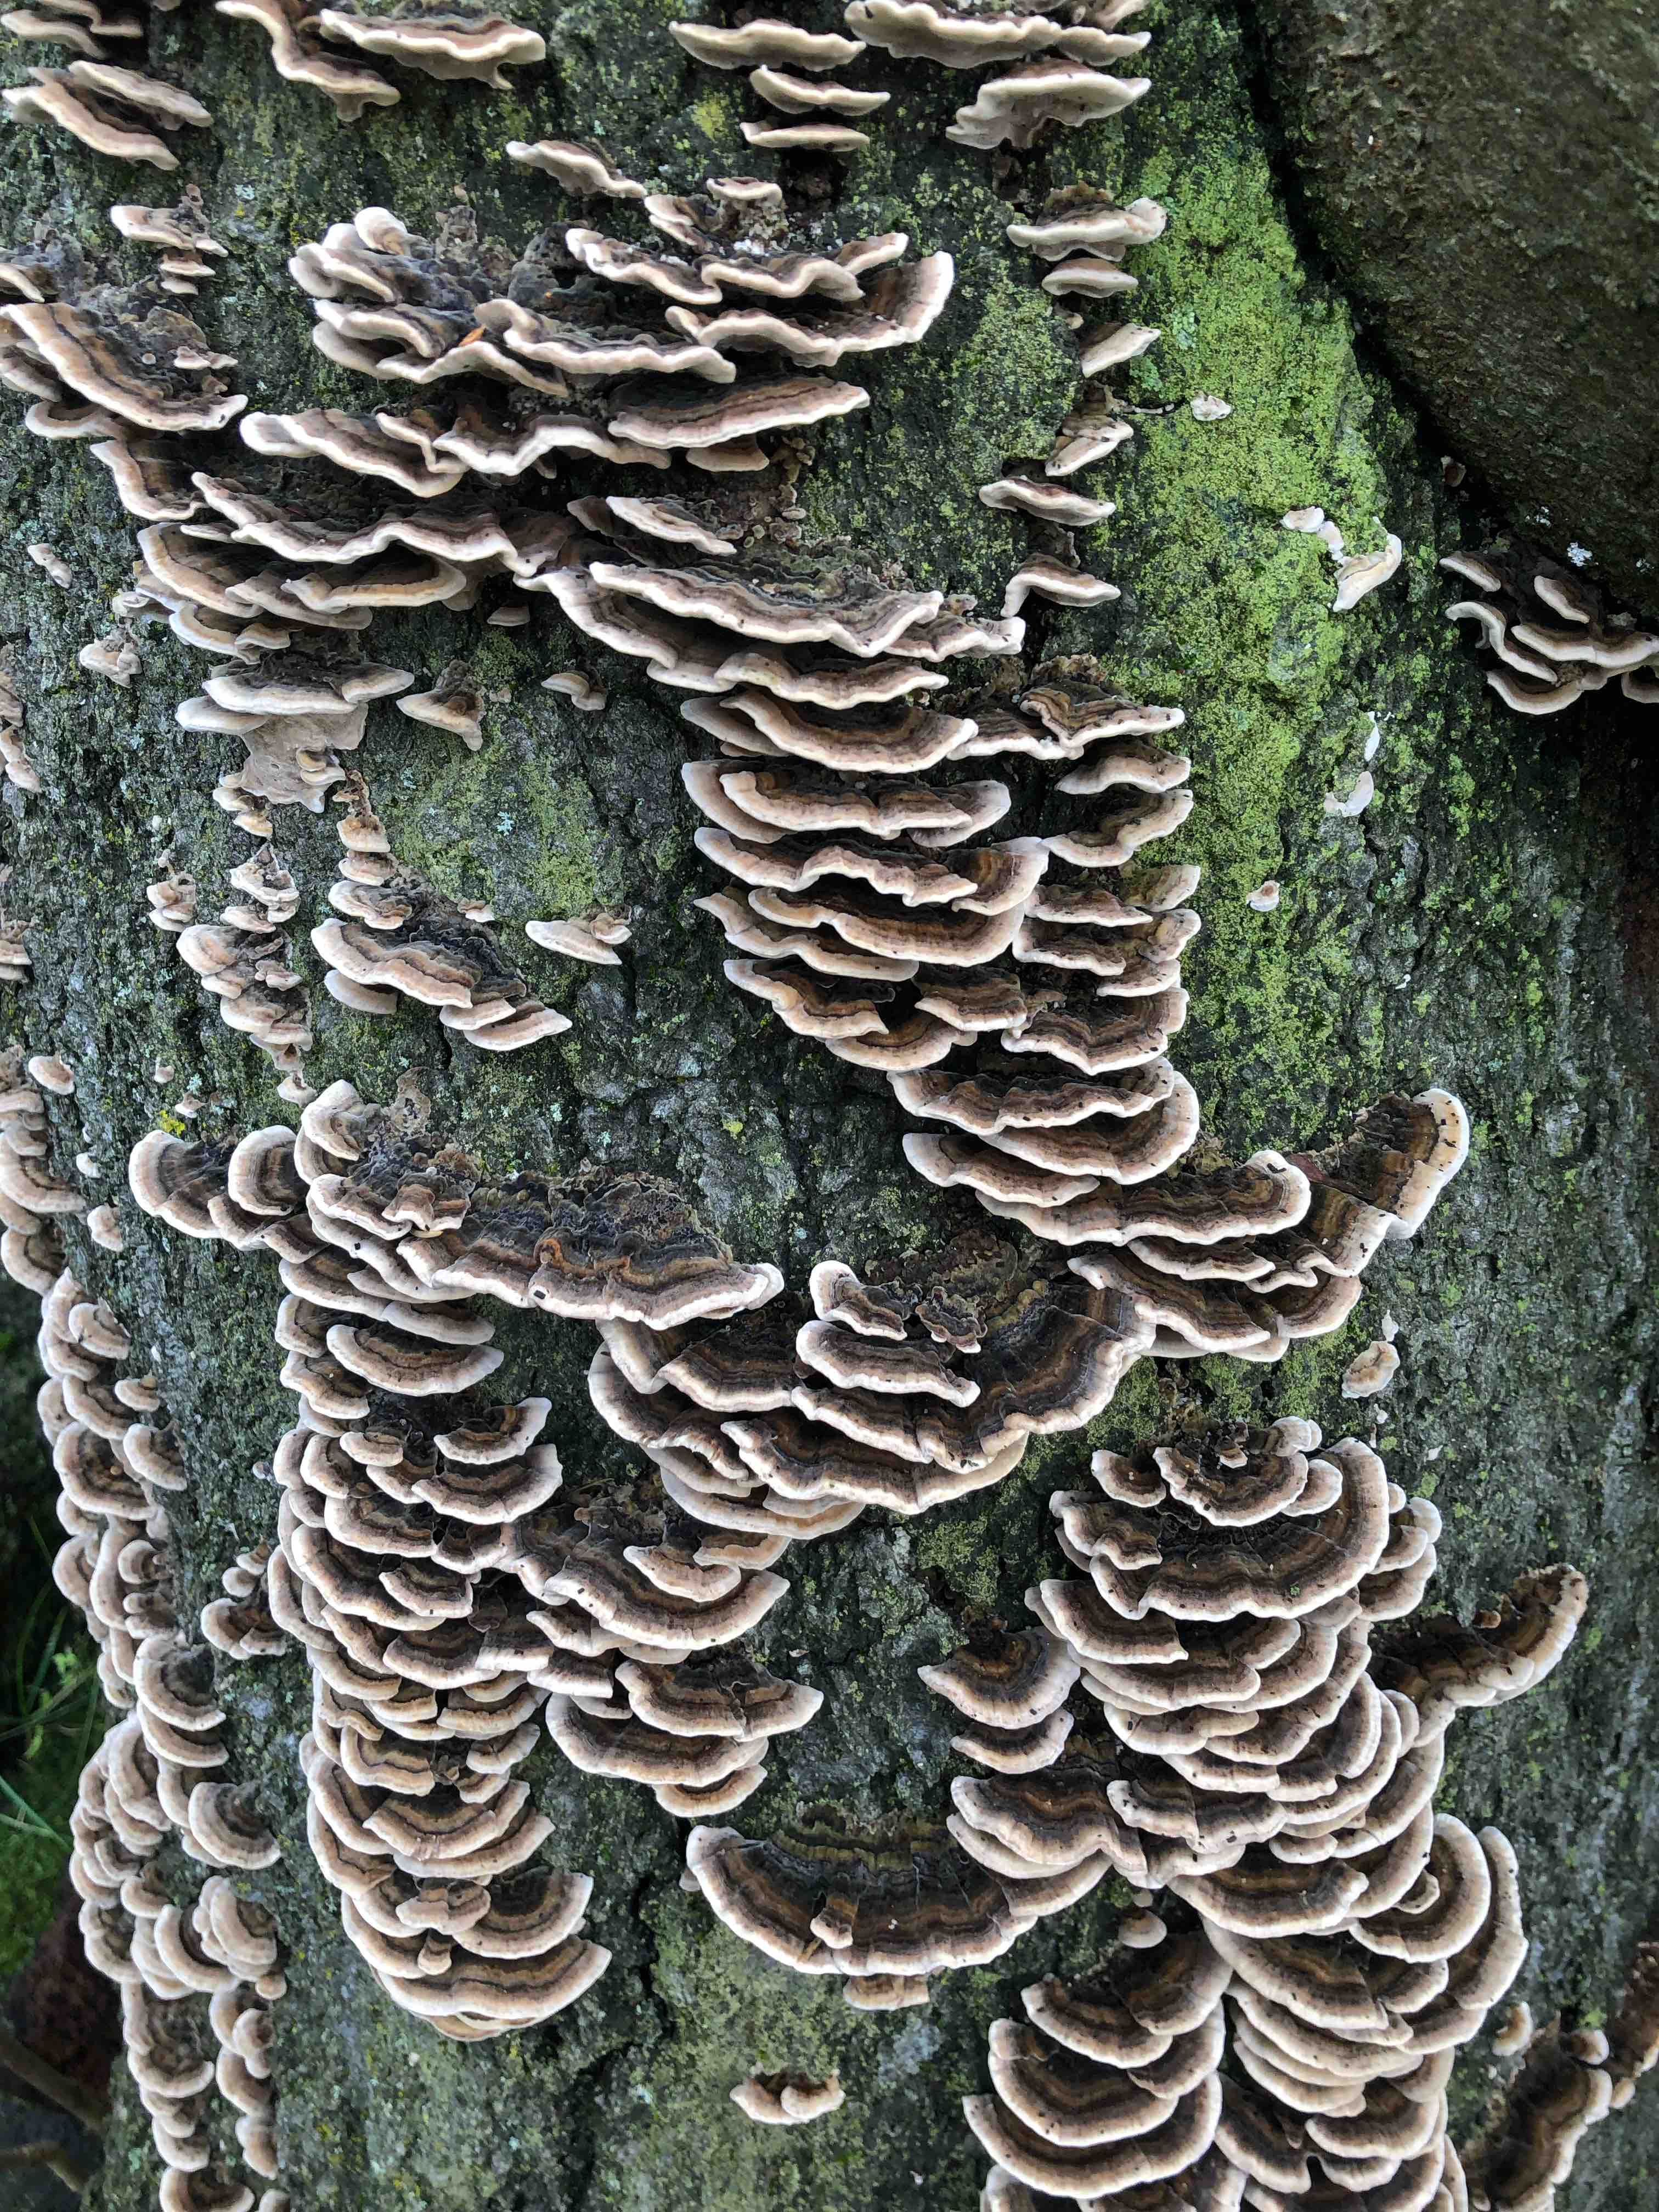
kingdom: Fungi
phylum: Basidiomycota
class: Agaricomycetes
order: Polyporales
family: Polyporaceae
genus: Trametes
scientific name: Trametes versicolor
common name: broget læderporesvamp
